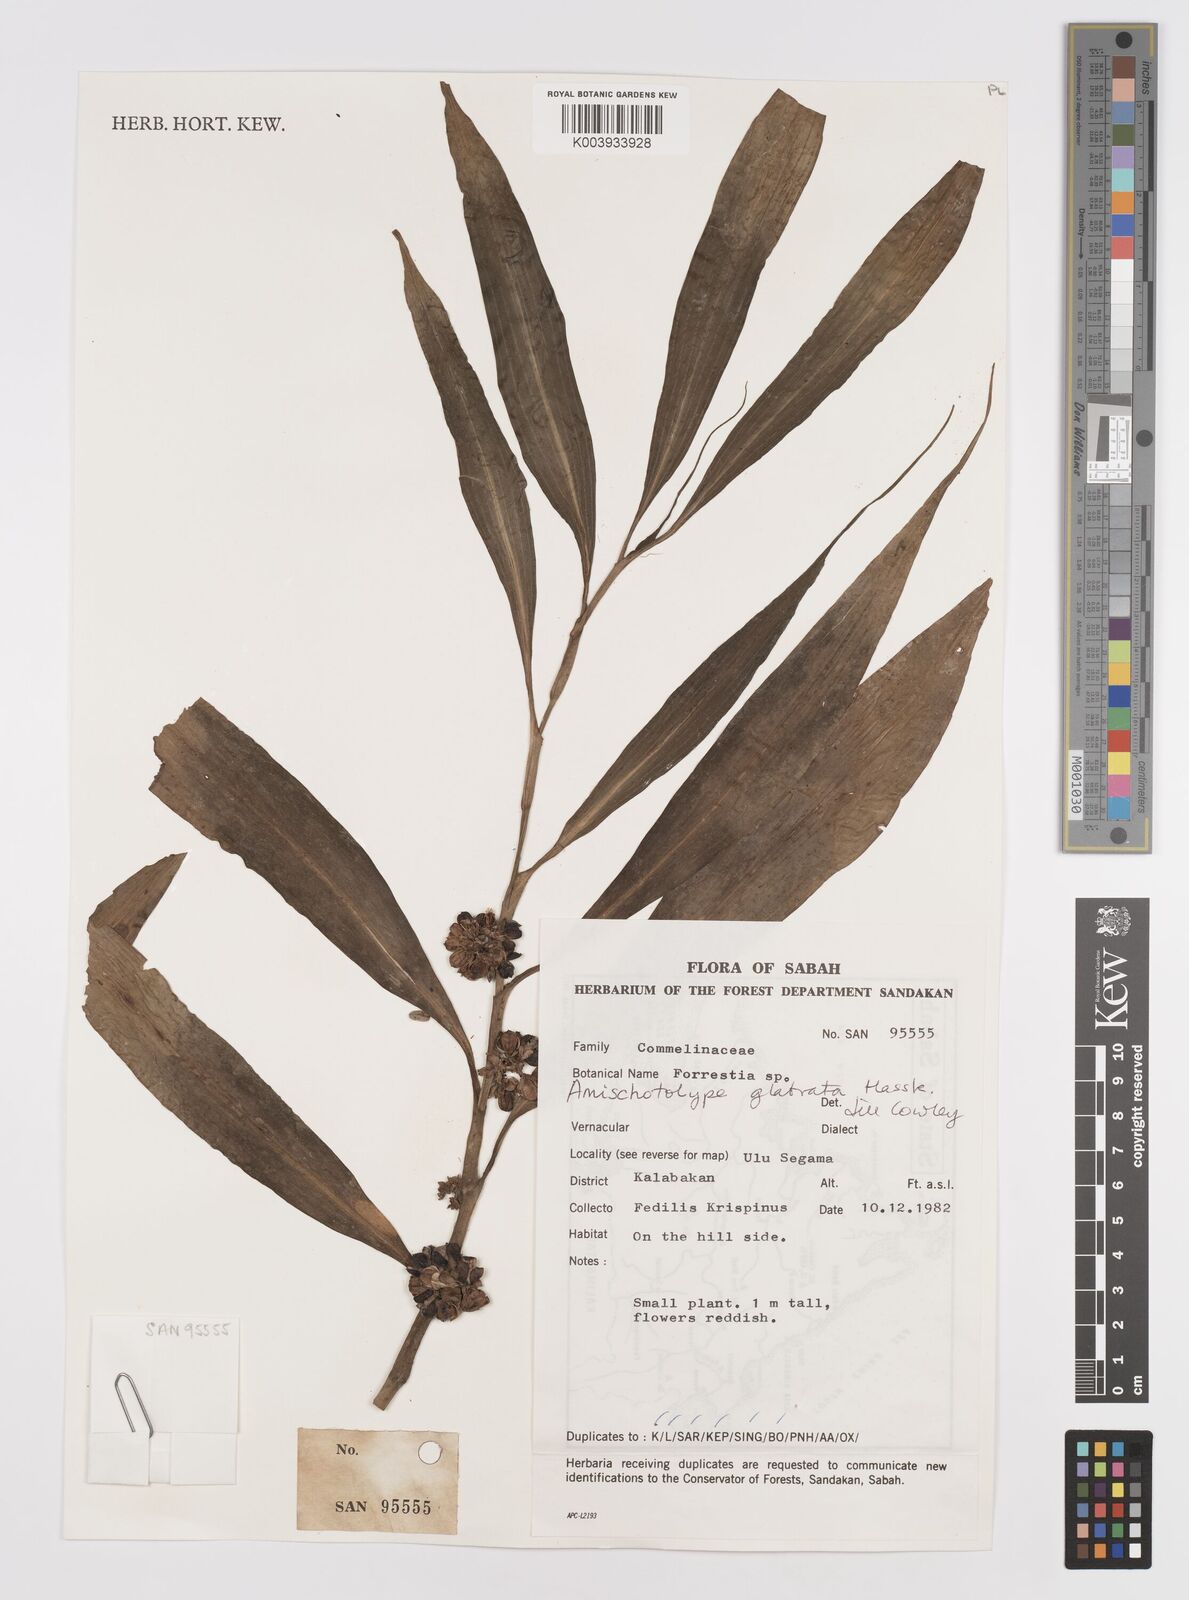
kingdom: Plantae
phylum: Tracheophyta
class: Liliopsida
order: Commelinales
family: Commelinaceae
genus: Amischotolype
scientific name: Amischotolype glabrata
